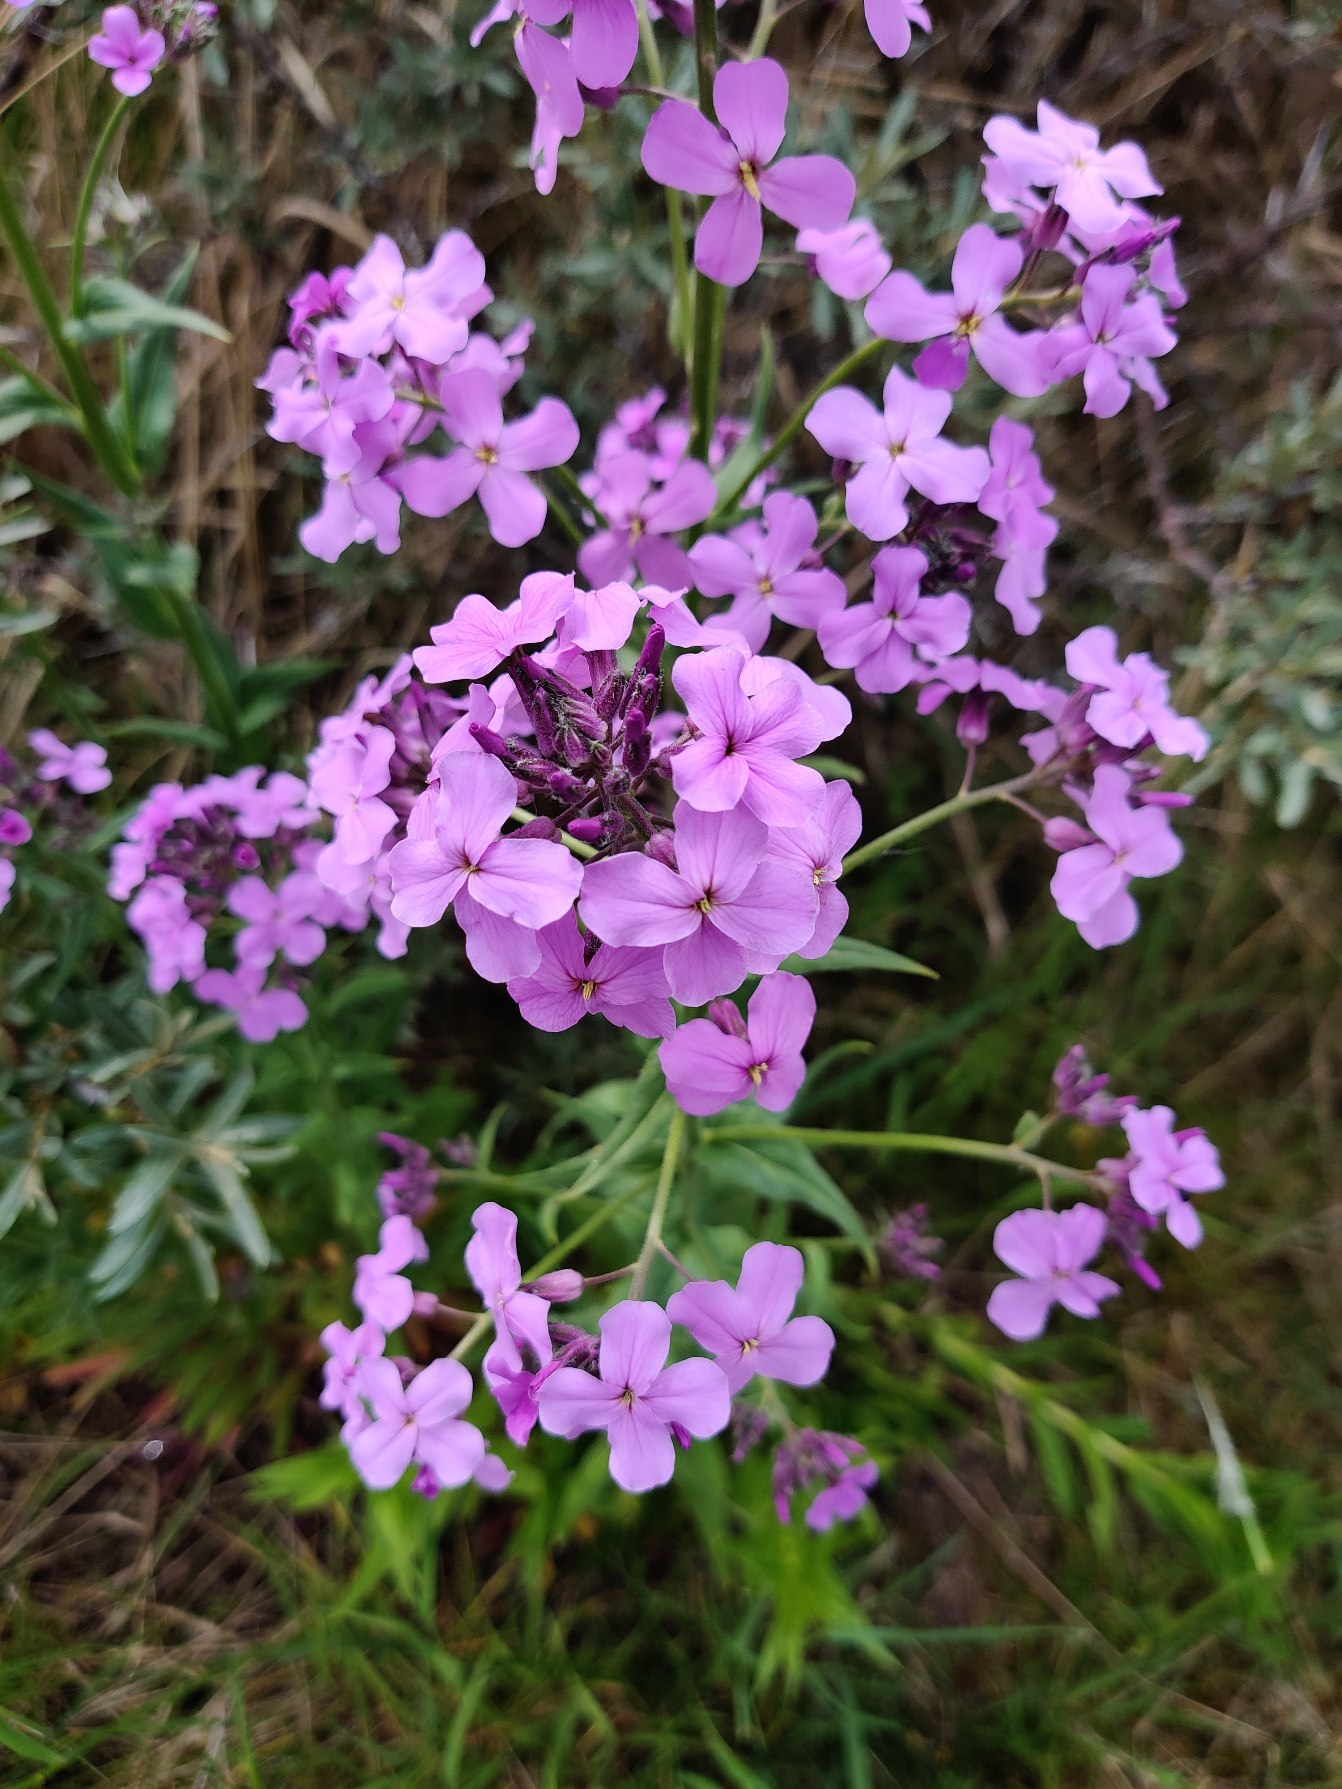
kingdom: Plantae
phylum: Tracheophyta
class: Magnoliopsida
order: Brassicales
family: Brassicaceae
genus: Hesperis
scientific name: Hesperis matronalis
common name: Aftenstjerne
